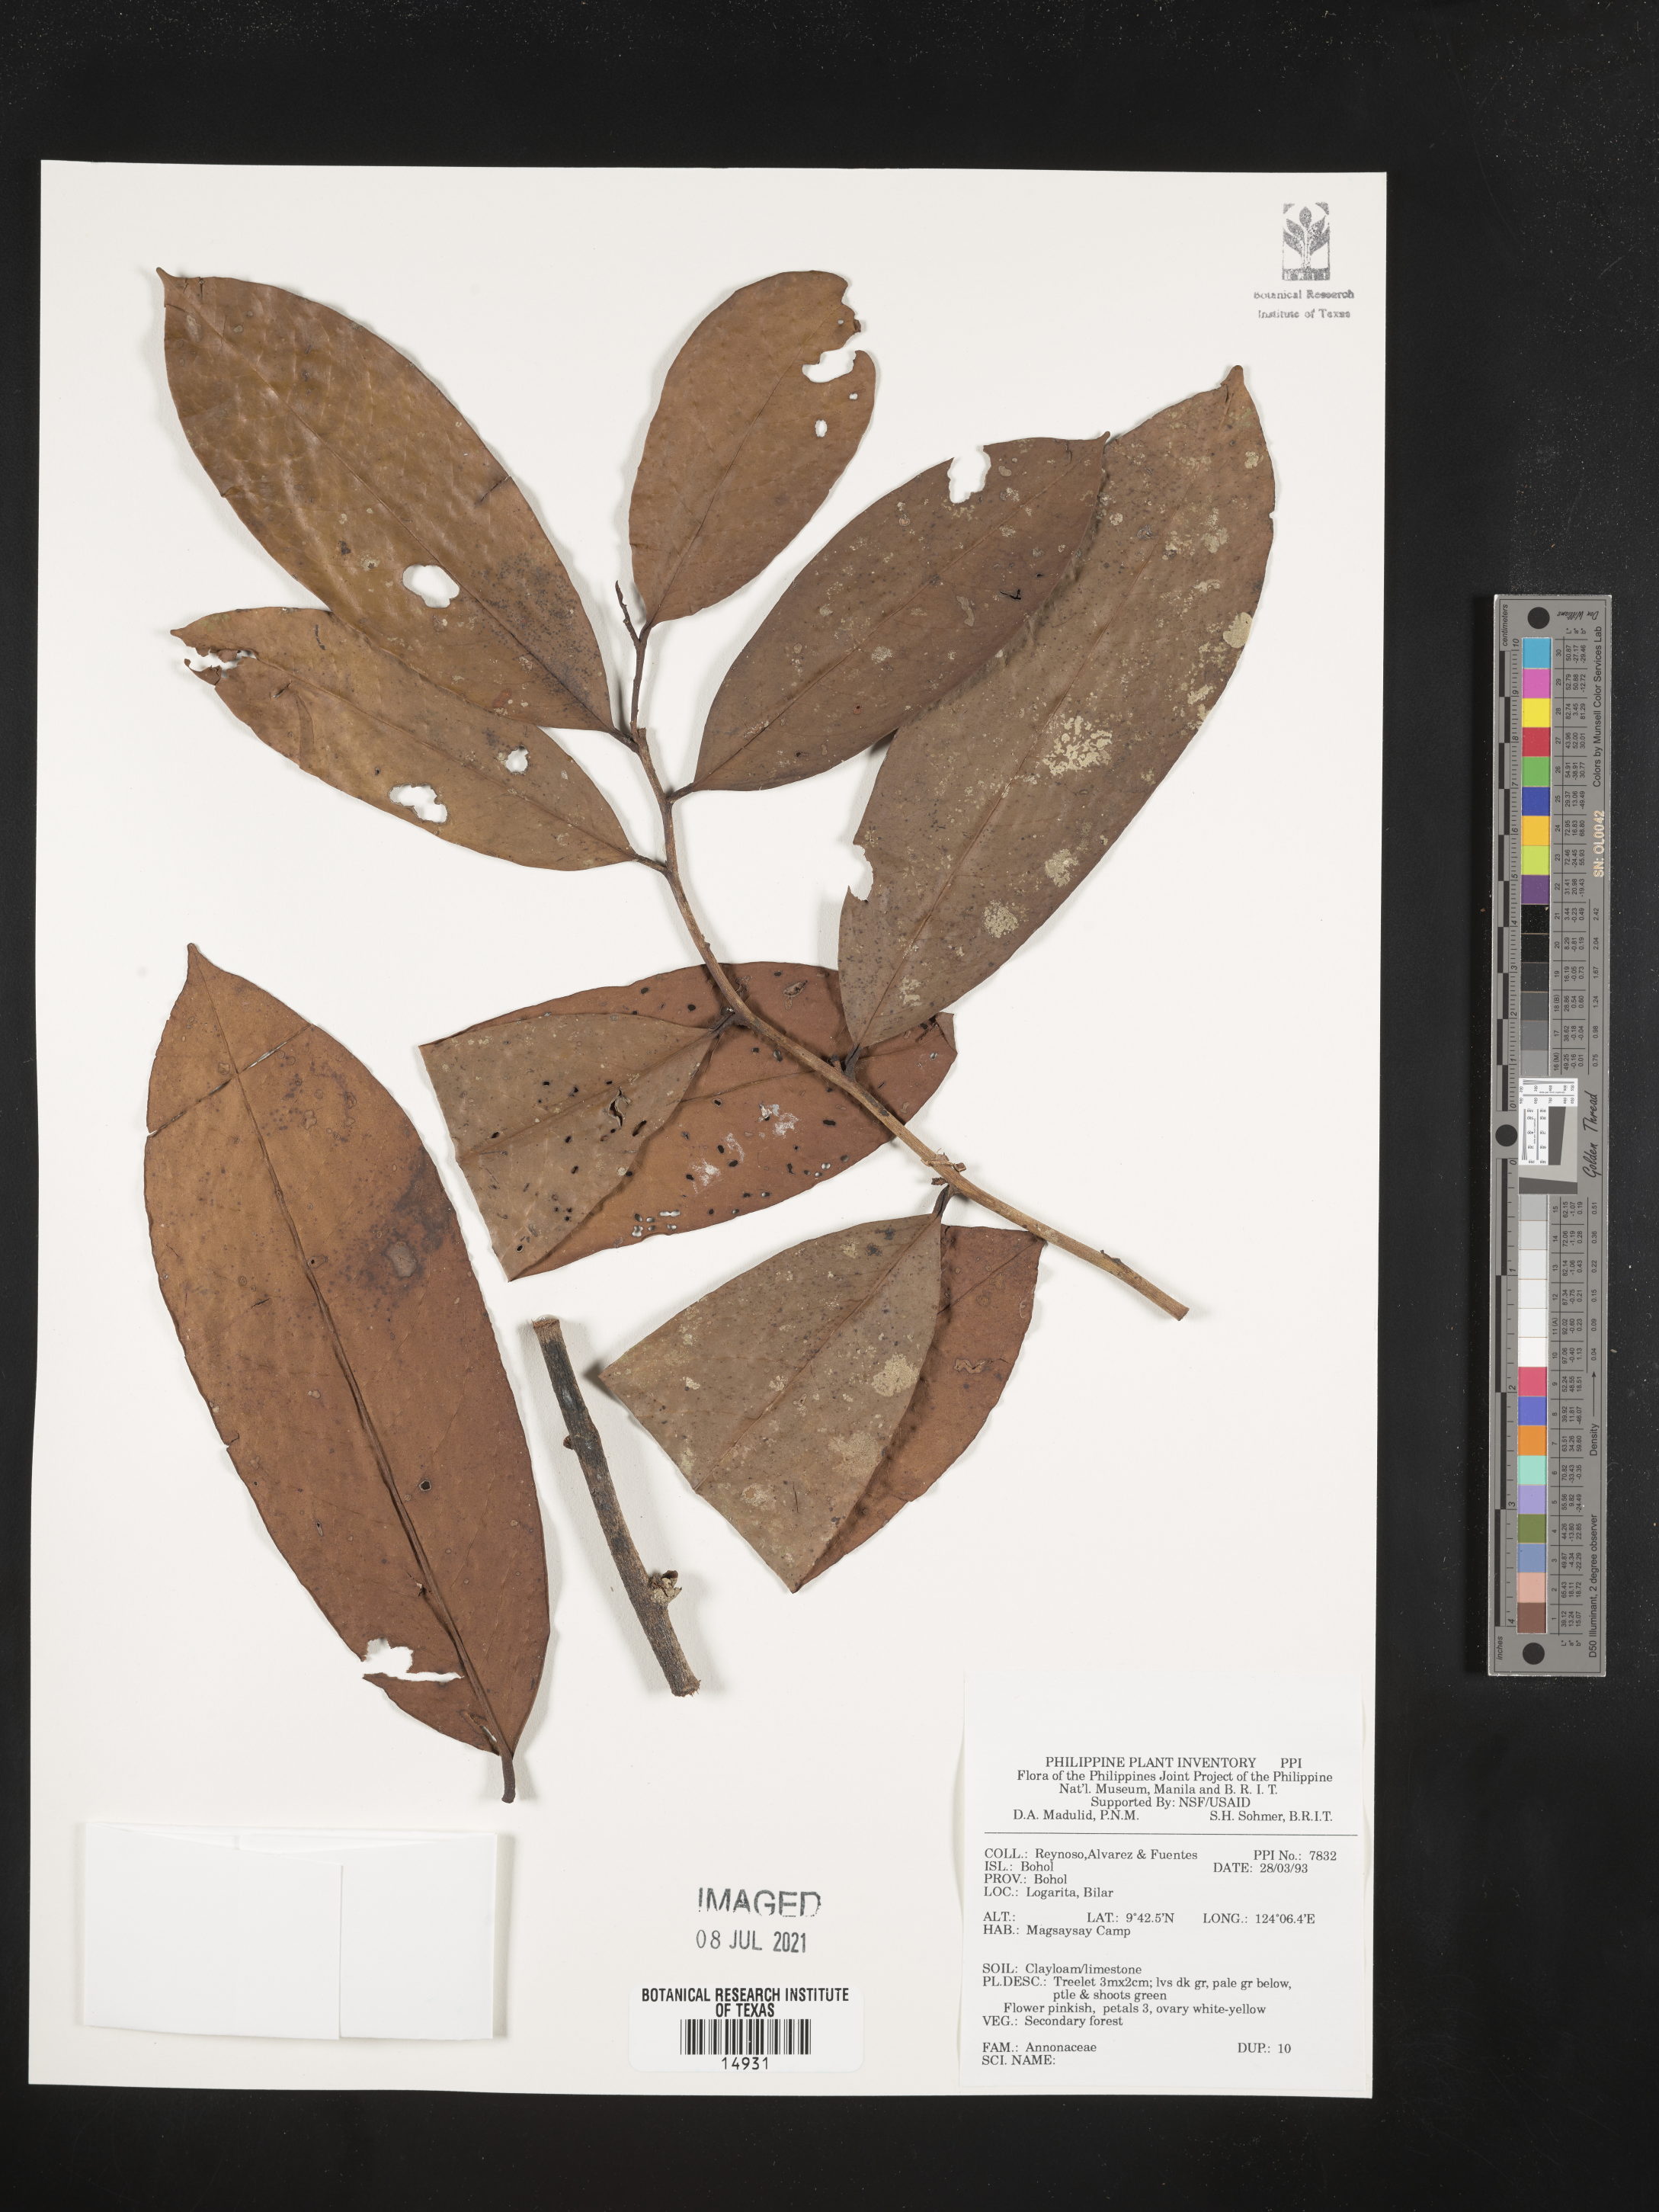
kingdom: Plantae
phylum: Tracheophyta
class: Magnoliopsida
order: Magnoliales
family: Annonaceae
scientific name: Annonaceae
